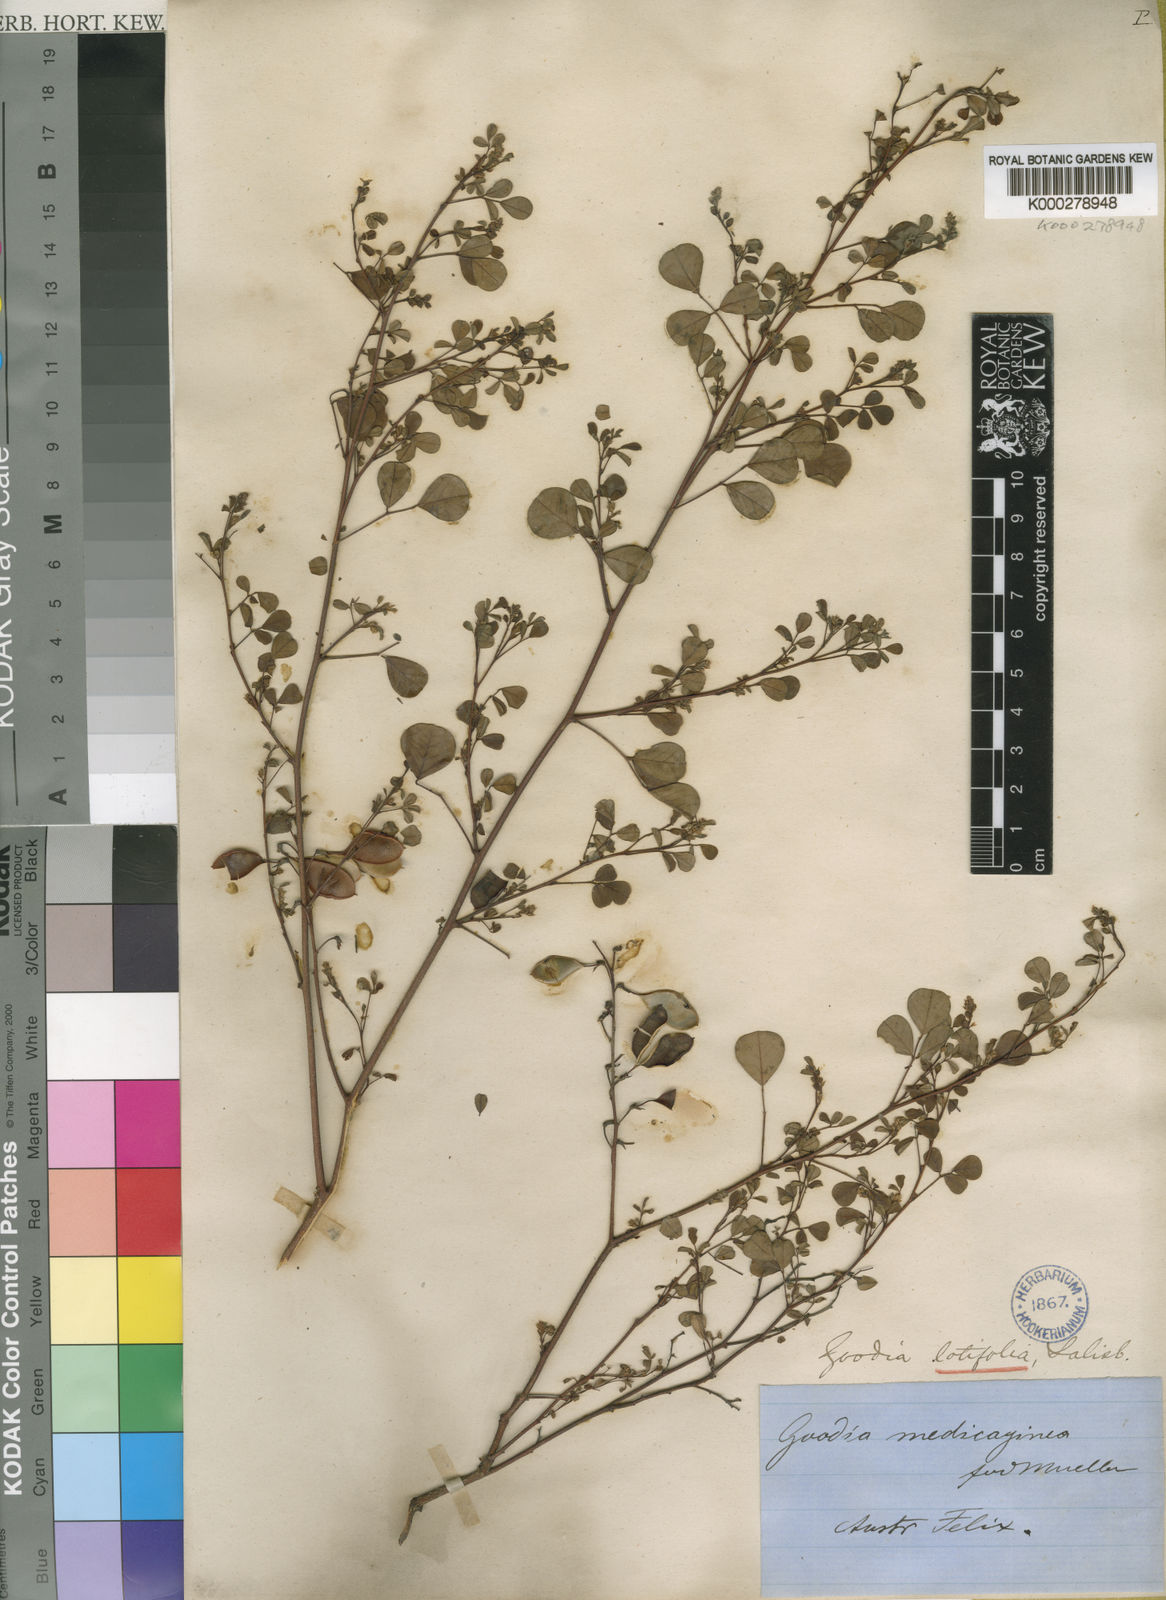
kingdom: Plantae
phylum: Tracheophyta
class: Magnoliopsida
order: Fabales
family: Fabaceae
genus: Goodia
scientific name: Goodia lotifolia
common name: Cloverleaf-poison
